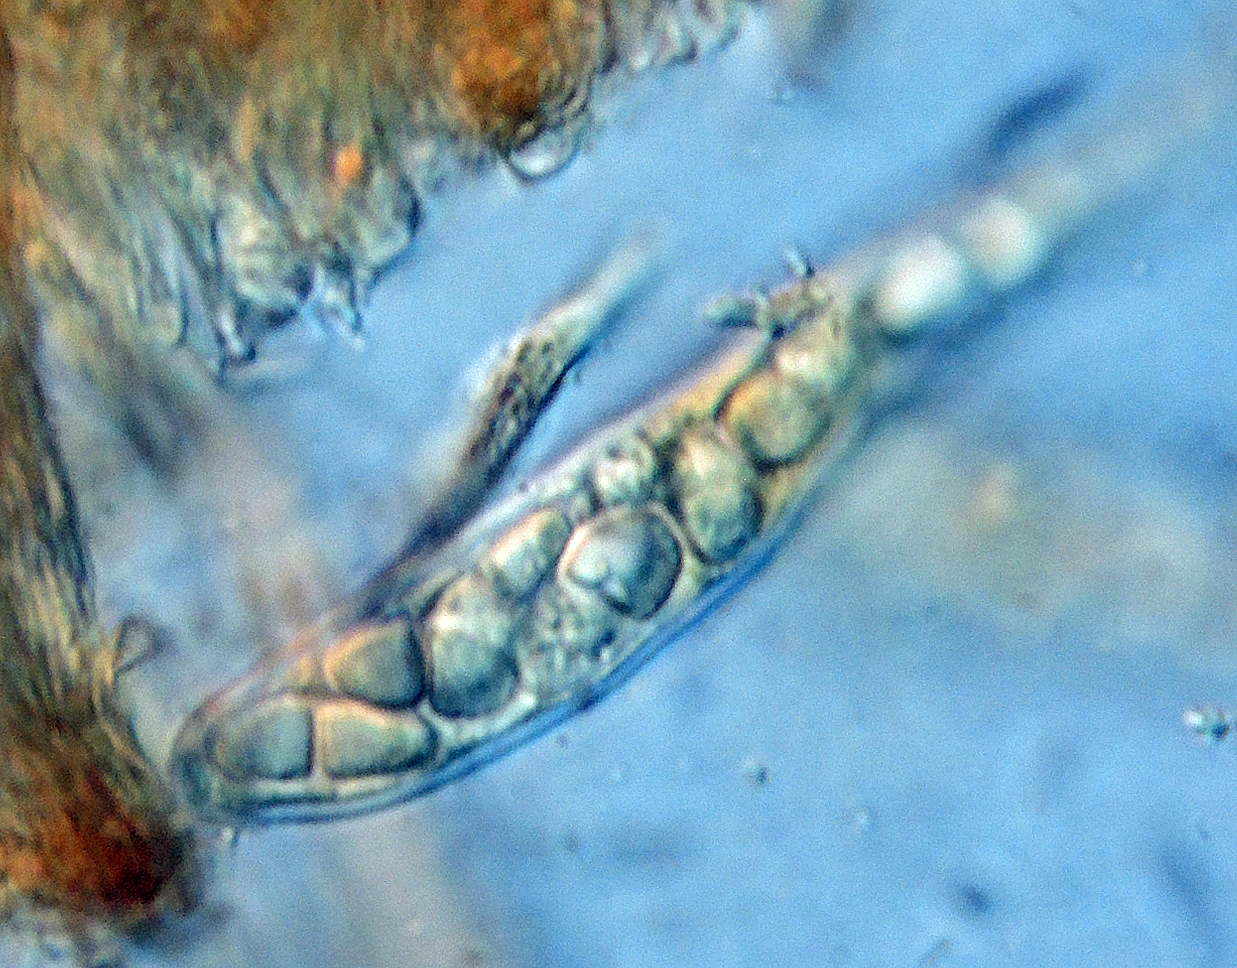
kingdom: Fungi
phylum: Ascomycota
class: Leotiomycetes
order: Helotiales
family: Hyaloscyphaceae
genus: Remleria
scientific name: Remleria myrtillinoides
